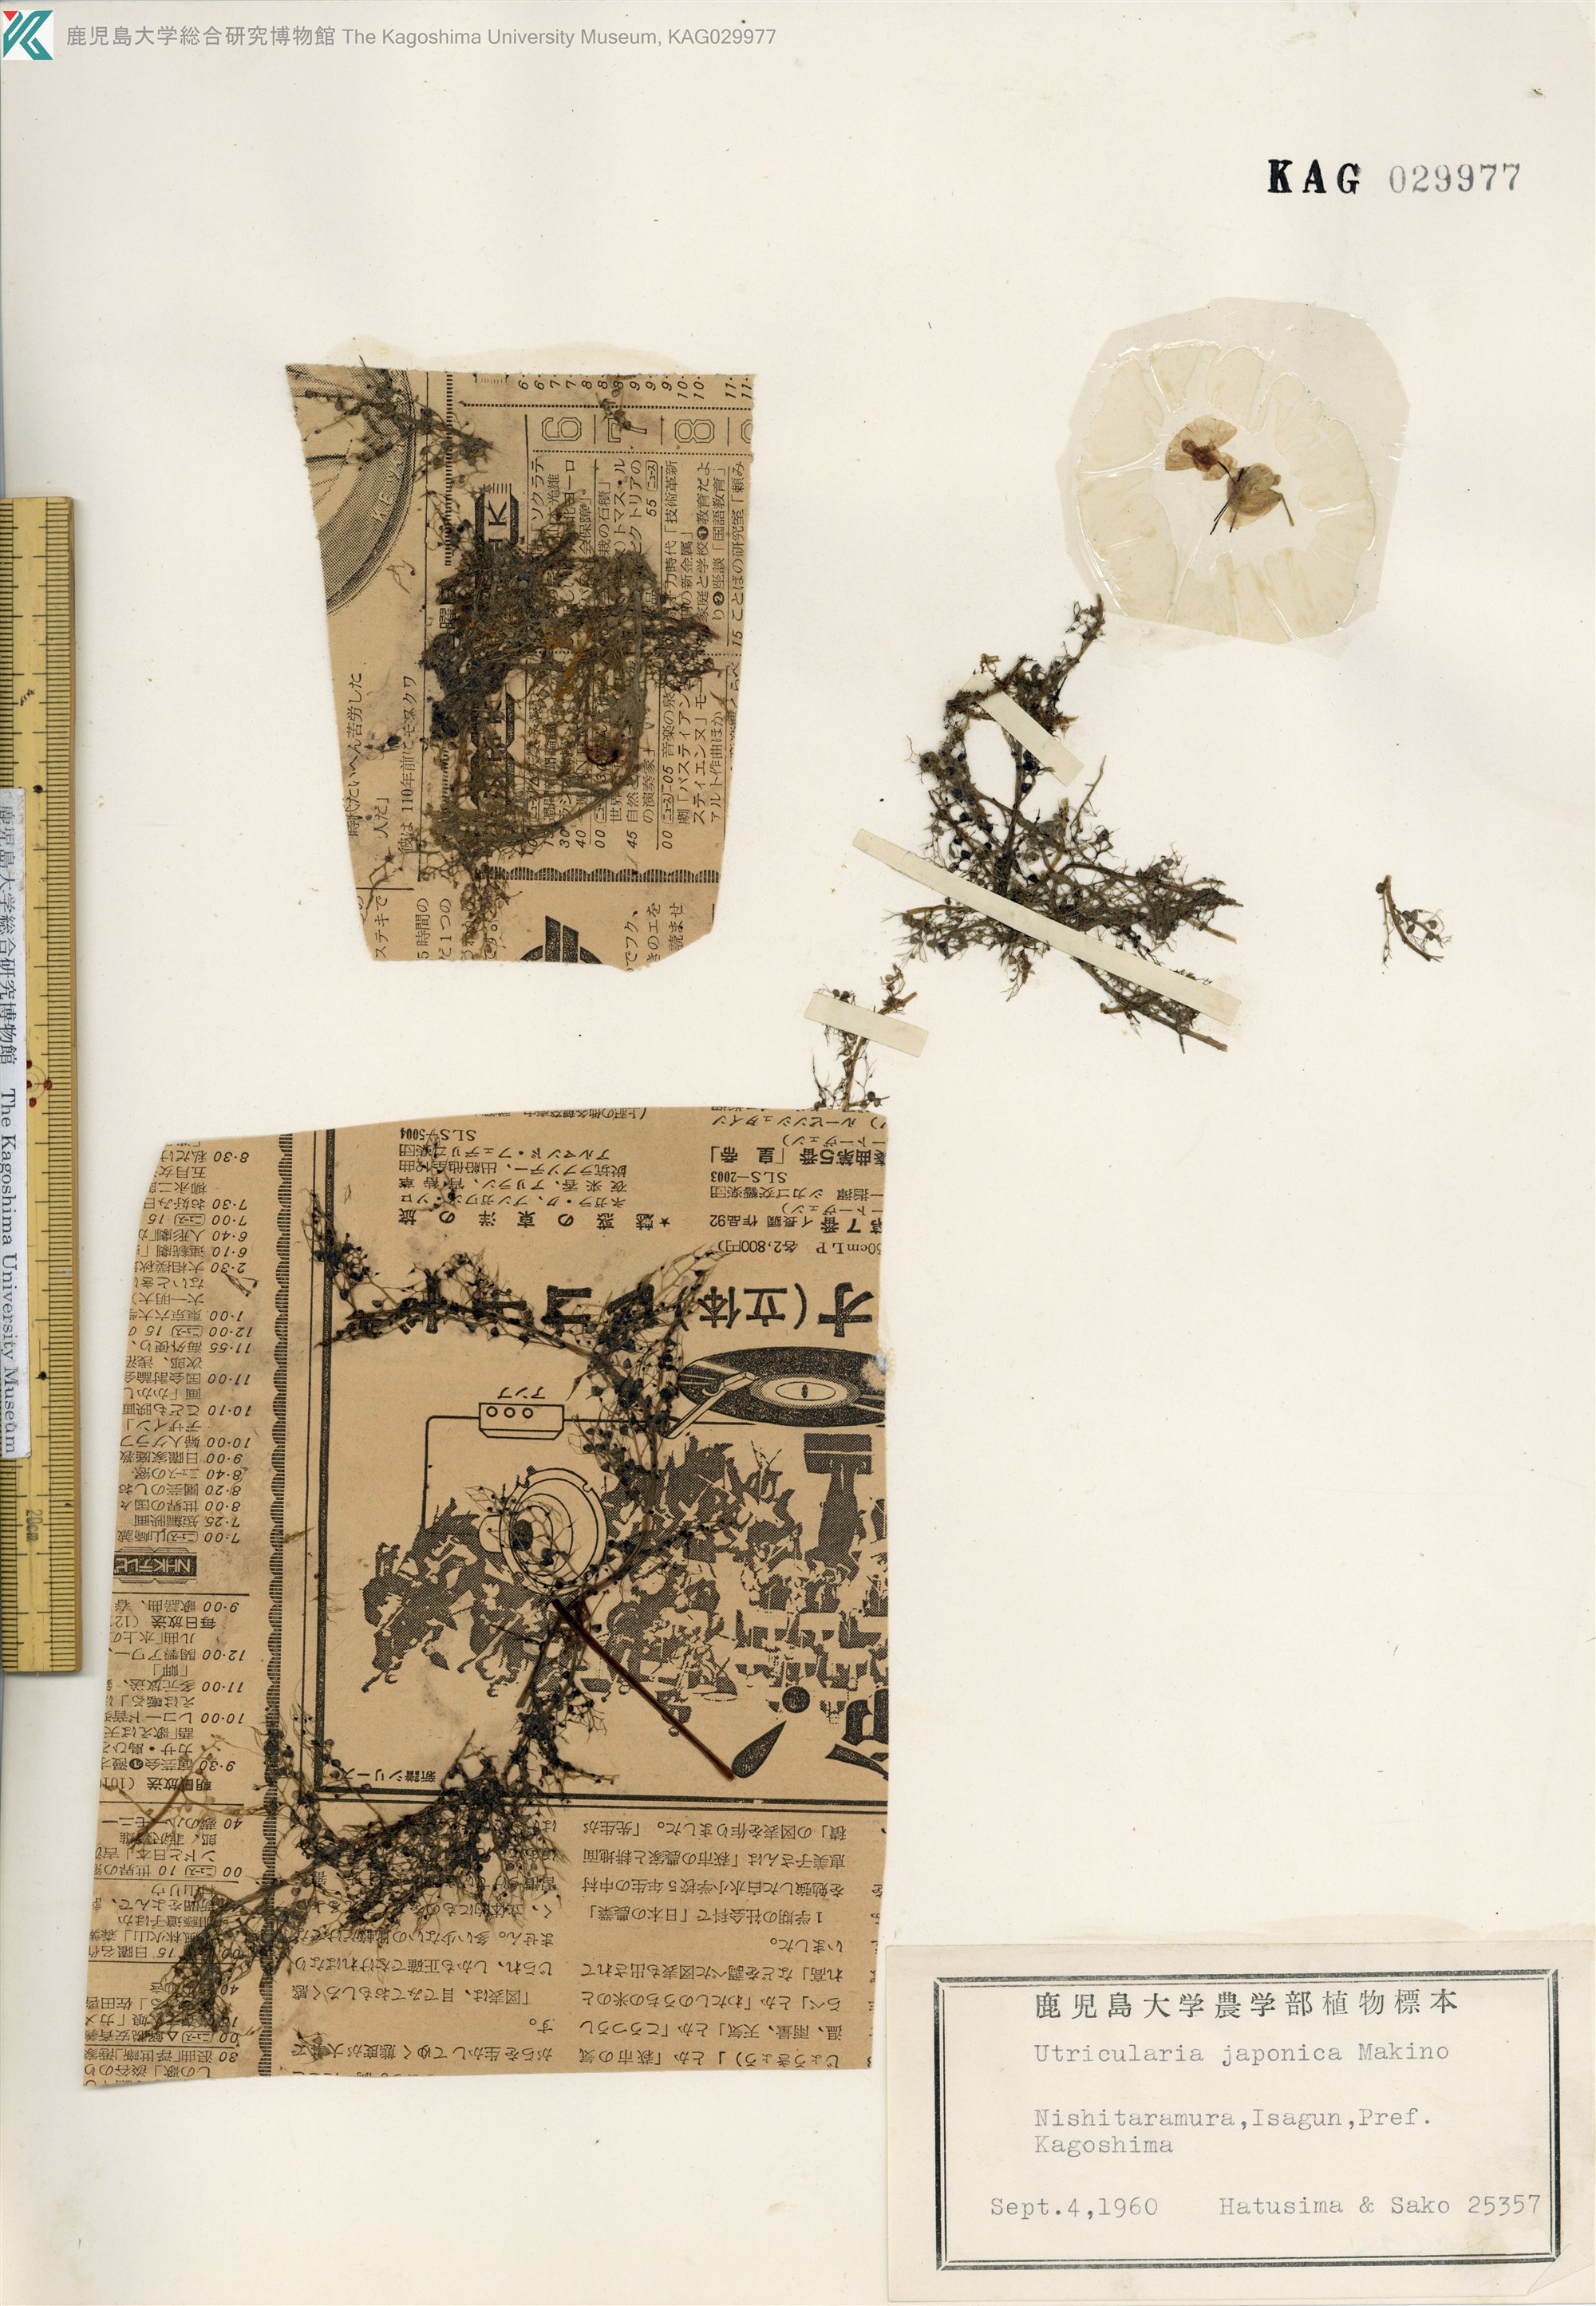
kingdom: Plantae
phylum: Tracheophyta
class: Magnoliopsida
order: Lamiales
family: Lentibulariaceae
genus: Utricularia
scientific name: Utricularia japonica
